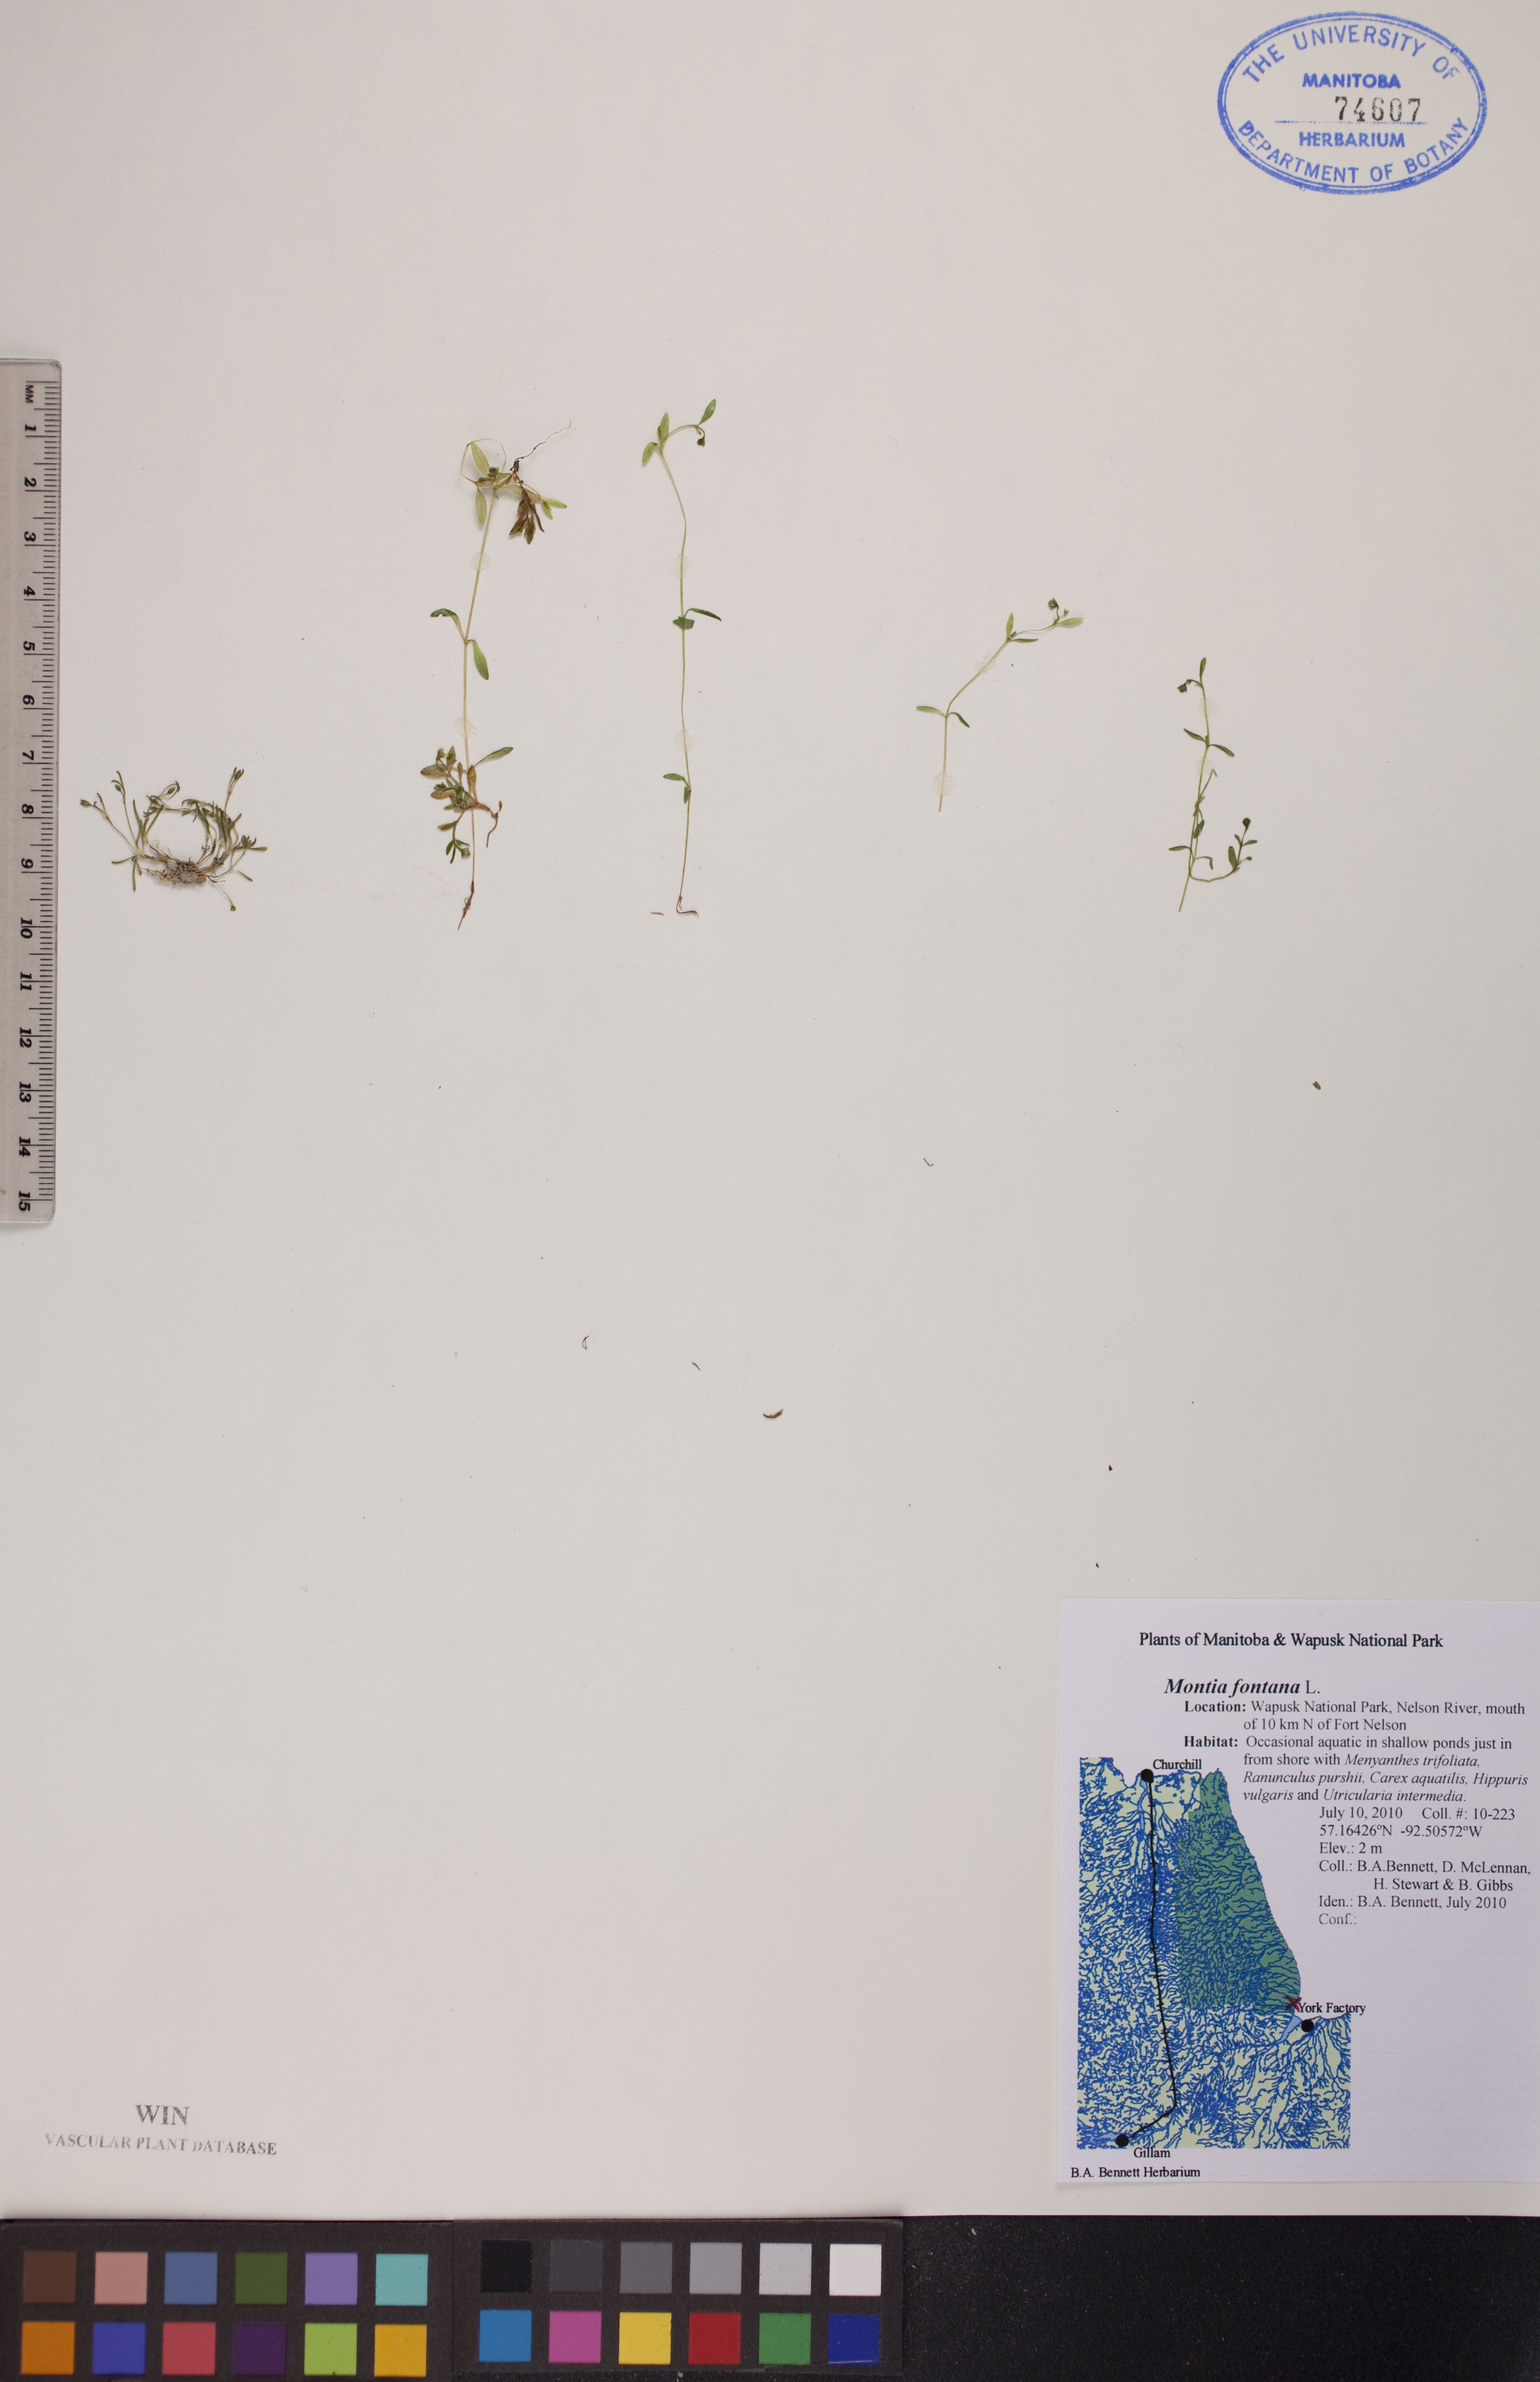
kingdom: Plantae
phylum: Tracheophyta
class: Magnoliopsida
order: Caryophyllales
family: Montiaceae
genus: Montia
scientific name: Montia fontana
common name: Blinks
